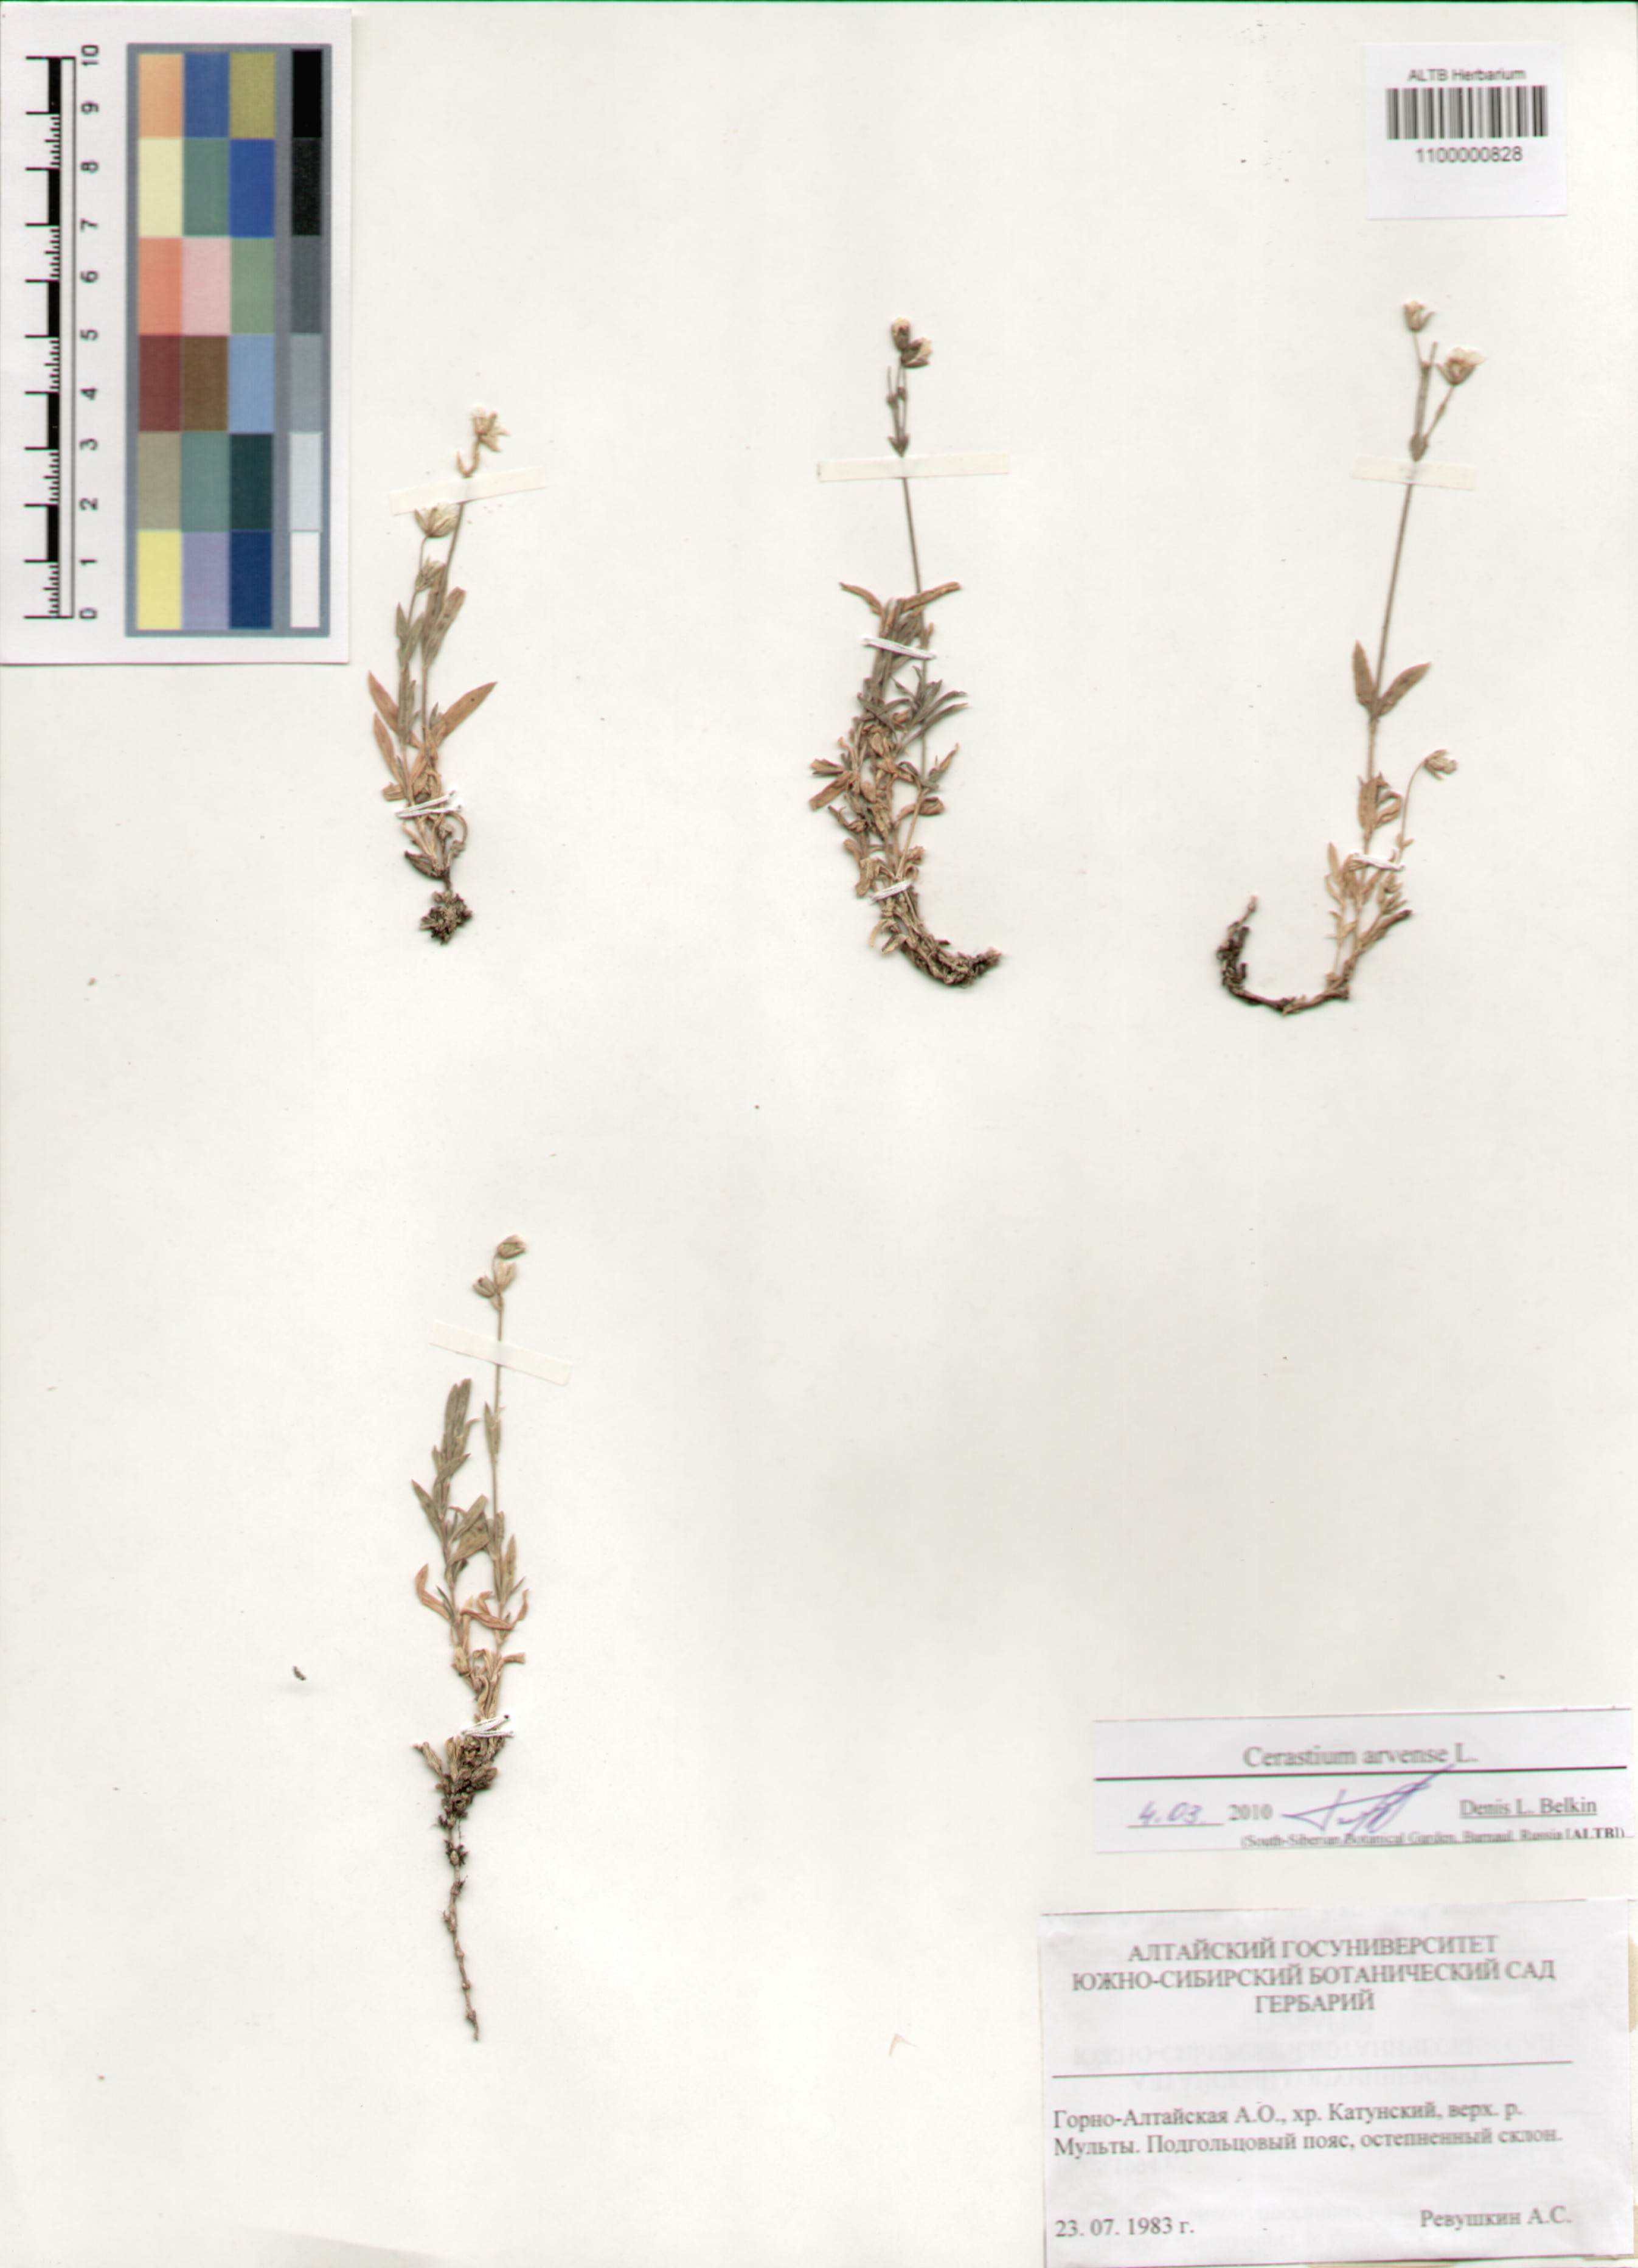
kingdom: Plantae
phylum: Tracheophyta
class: Magnoliopsida
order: Caryophyllales
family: Caryophyllaceae
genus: Cerastium
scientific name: Cerastium arvense
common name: Field mouse-ear
